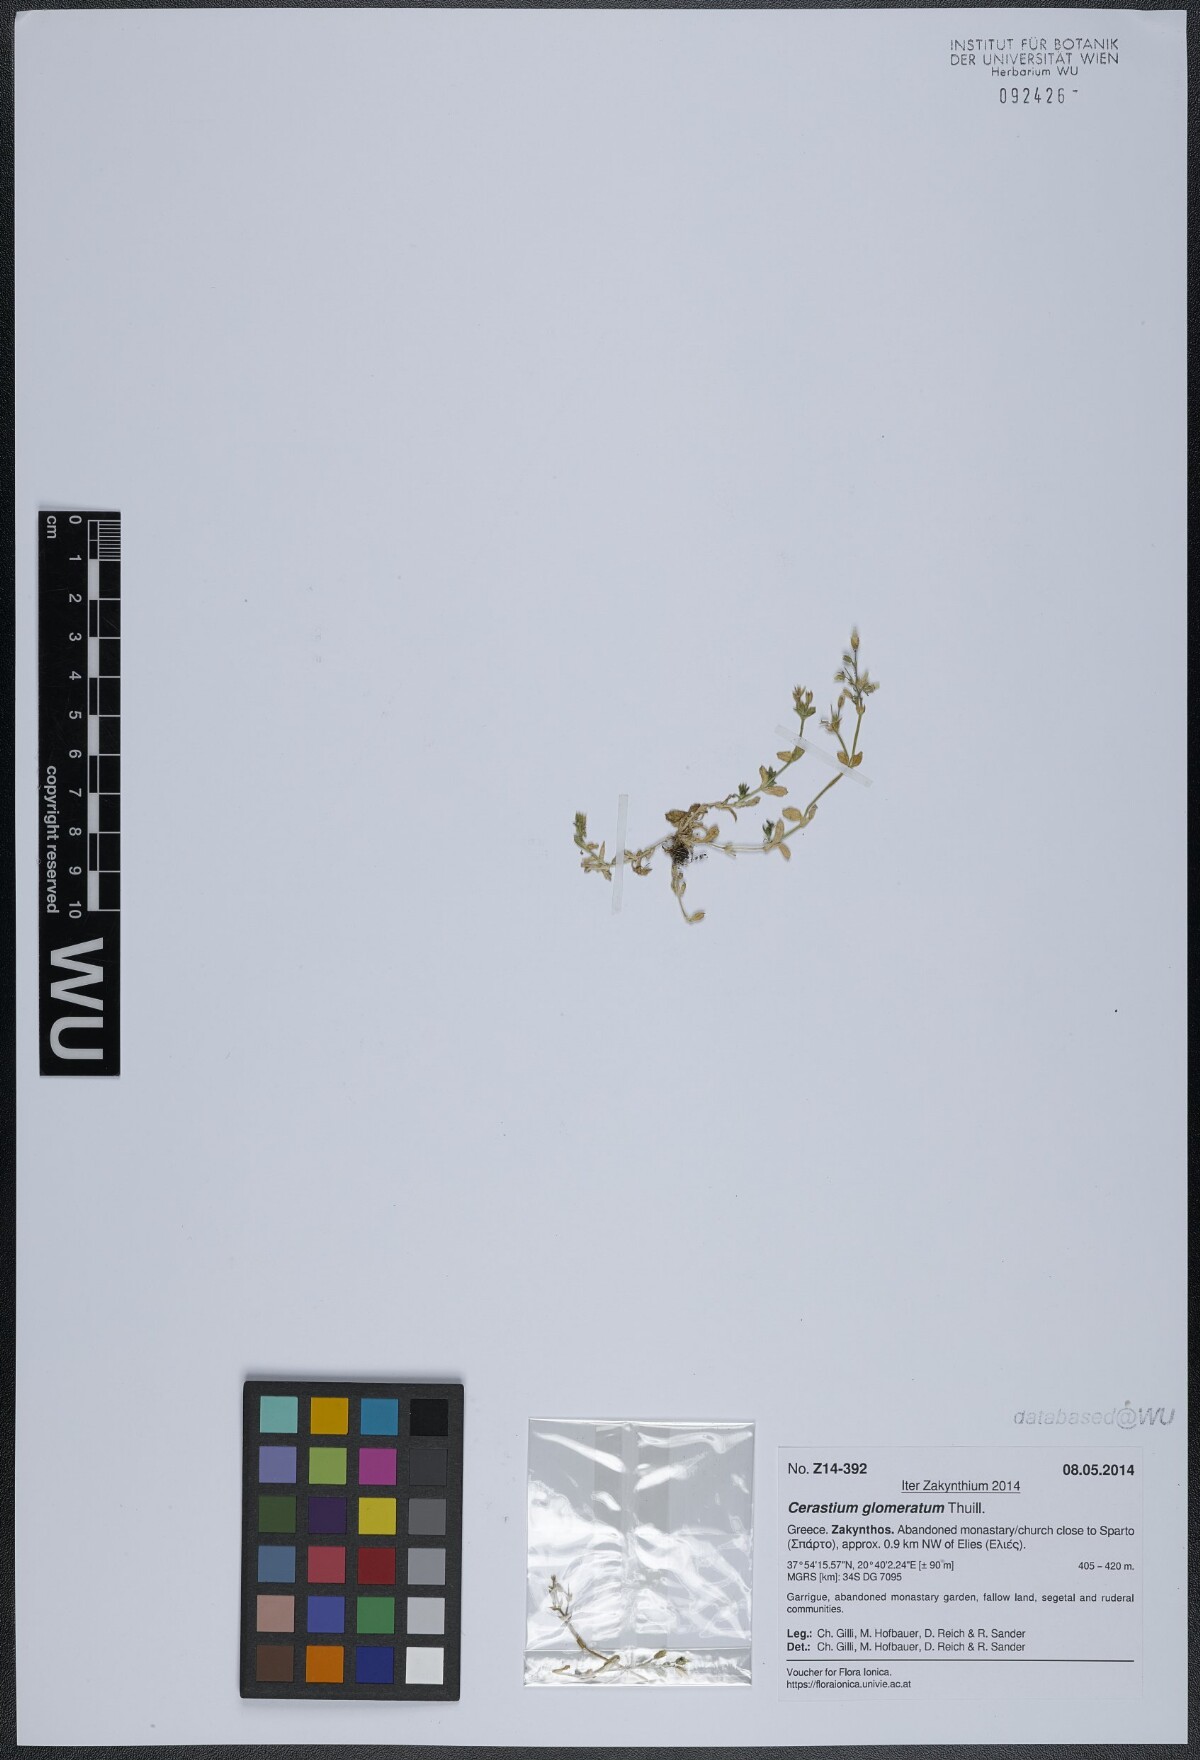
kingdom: Plantae
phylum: Tracheophyta
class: Magnoliopsida
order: Caryophyllales
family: Caryophyllaceae
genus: Cerastium
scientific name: Cerastium glomeratum
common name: Sticky chickweed
